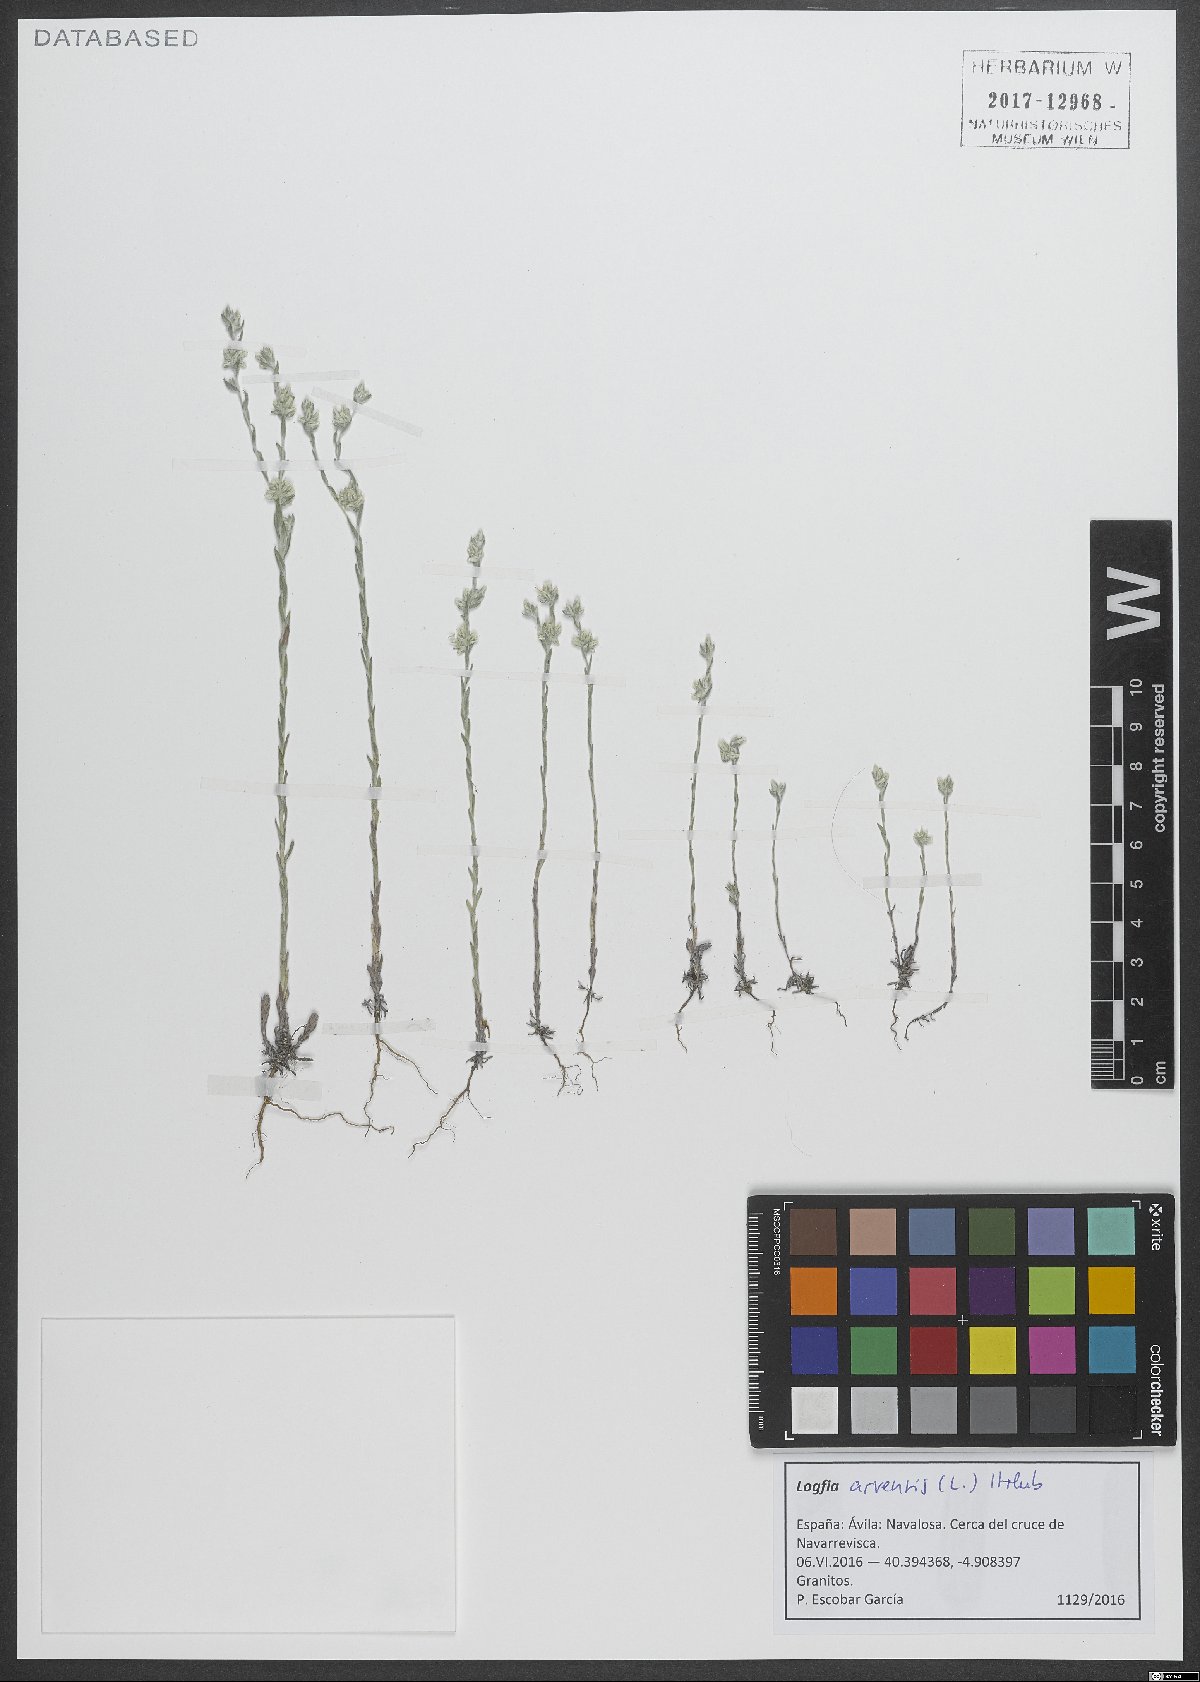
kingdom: Plantae
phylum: Tracheophyta
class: Magnoliopsida
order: Asterales
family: Asteraceae
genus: Filago
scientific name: Filago arvensis
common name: Field cudweed
